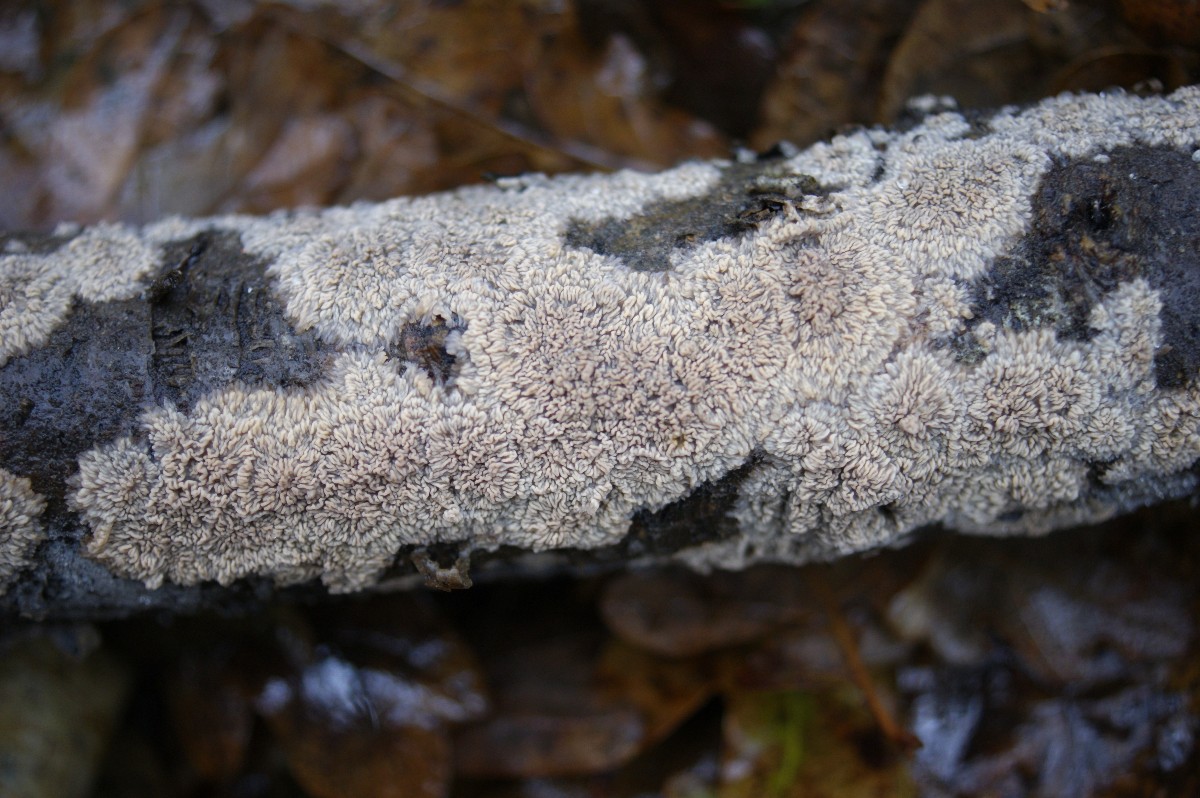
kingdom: Fungi
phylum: Basidiomycota
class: Agaricomycetes
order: Polyporales
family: Meruliaceae
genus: Phlebia
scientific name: Phlebia radiata
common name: stråle-åresvamp
